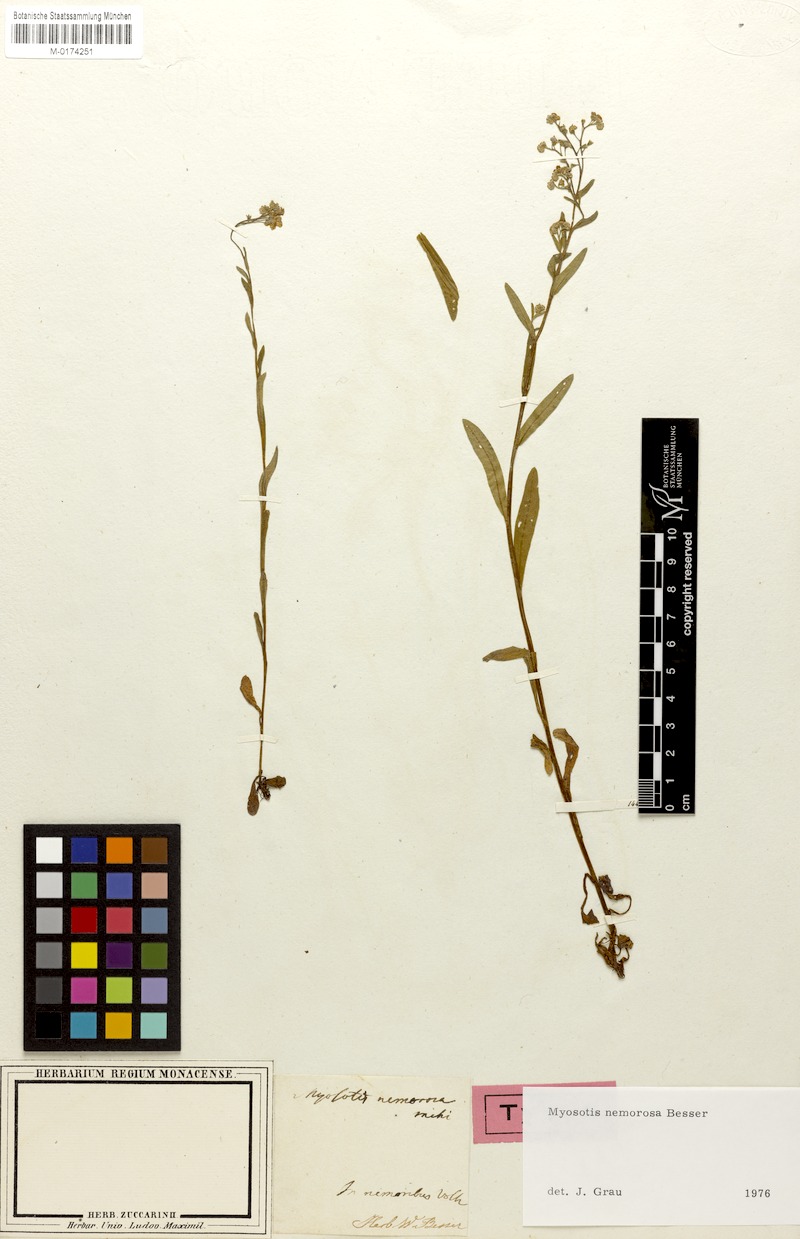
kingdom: Plantae
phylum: Tracheophyta
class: Magnoliopsida
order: Boraginales
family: Boraginaceae
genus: Myosotis
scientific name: Myosotis nemorosa
